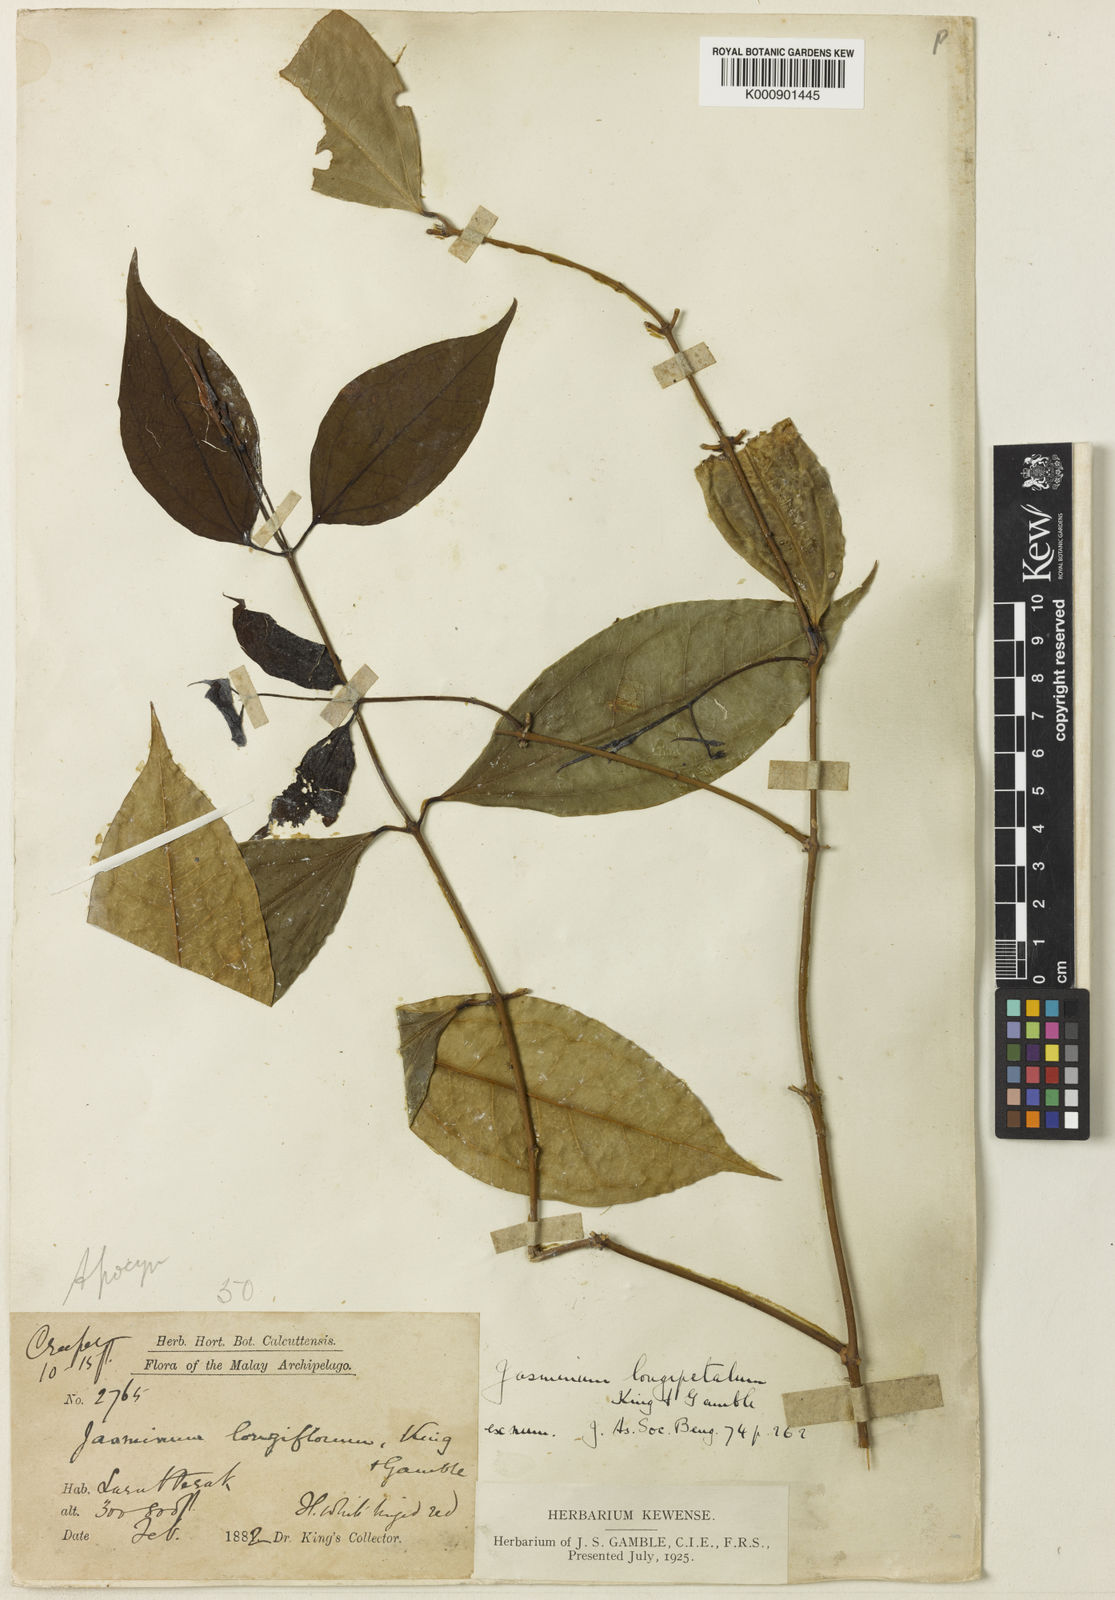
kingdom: Plantae
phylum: Tracheophyta
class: Magnoliopsida
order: Lamiales
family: Oleaceae
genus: Jasminum
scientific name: Jasminum longipetalum
